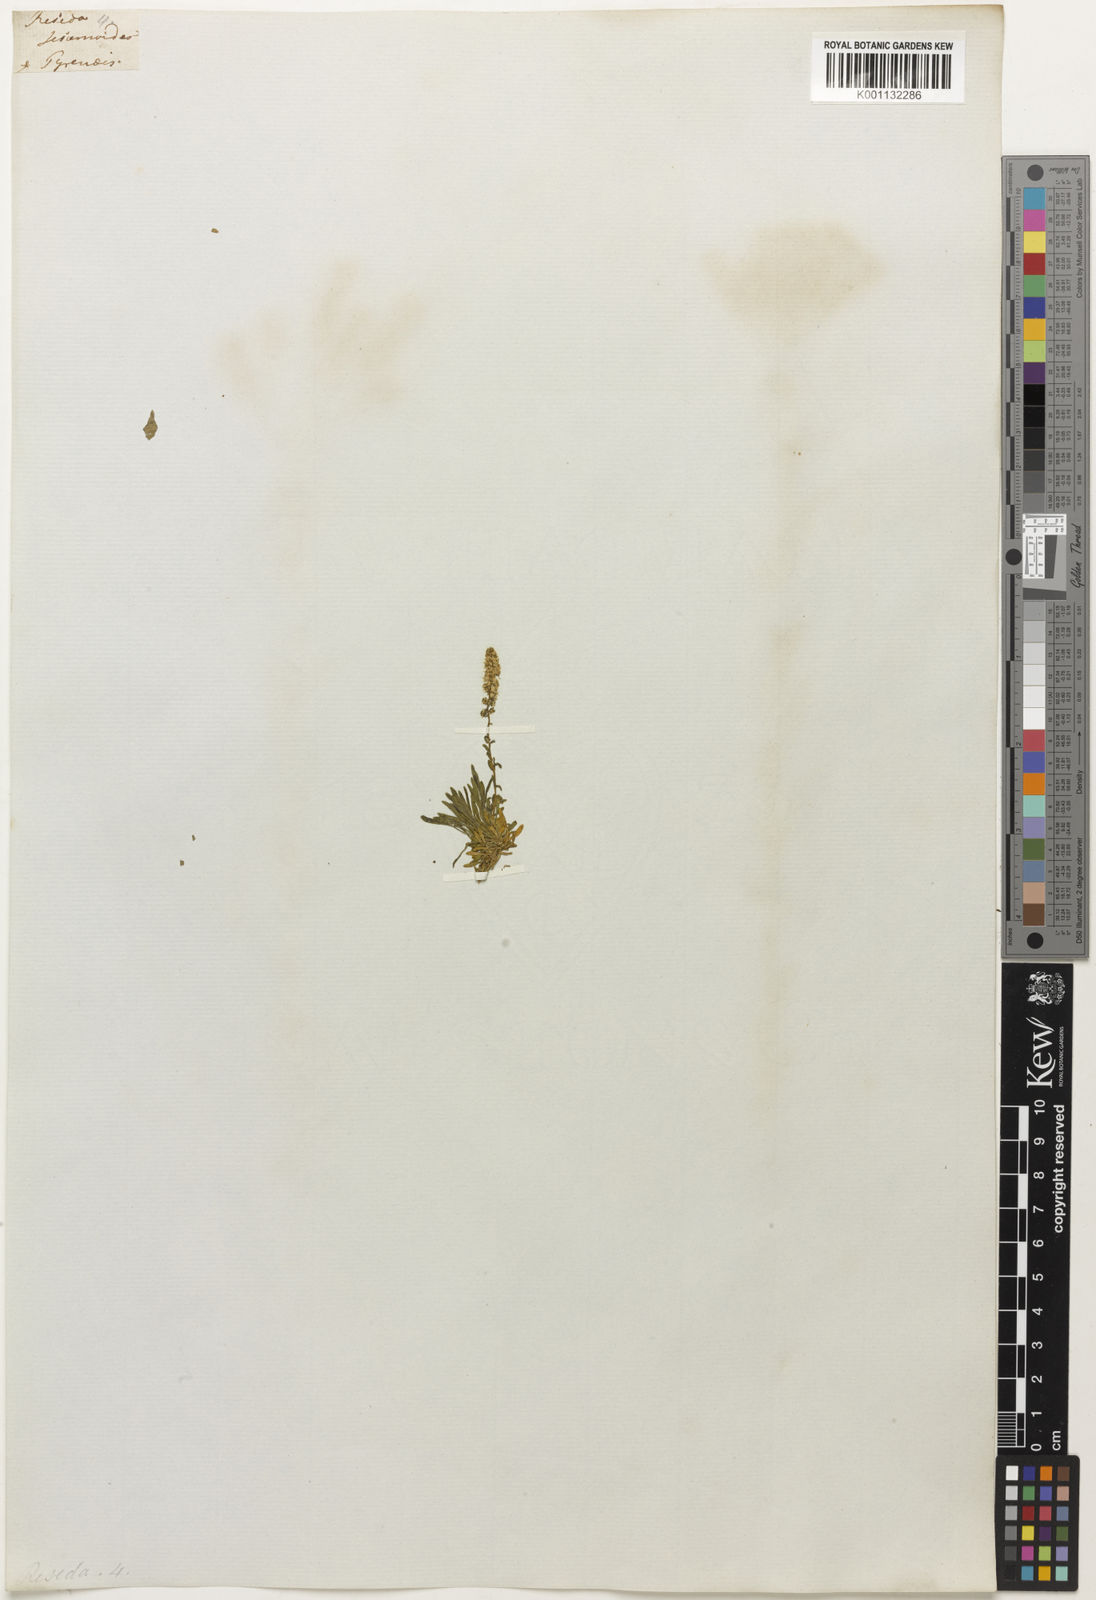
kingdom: Plantae
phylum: Tracheophyta
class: Magnoliopsida
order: Brassicales
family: Resedaceae
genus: Reseda
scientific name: Reseda
